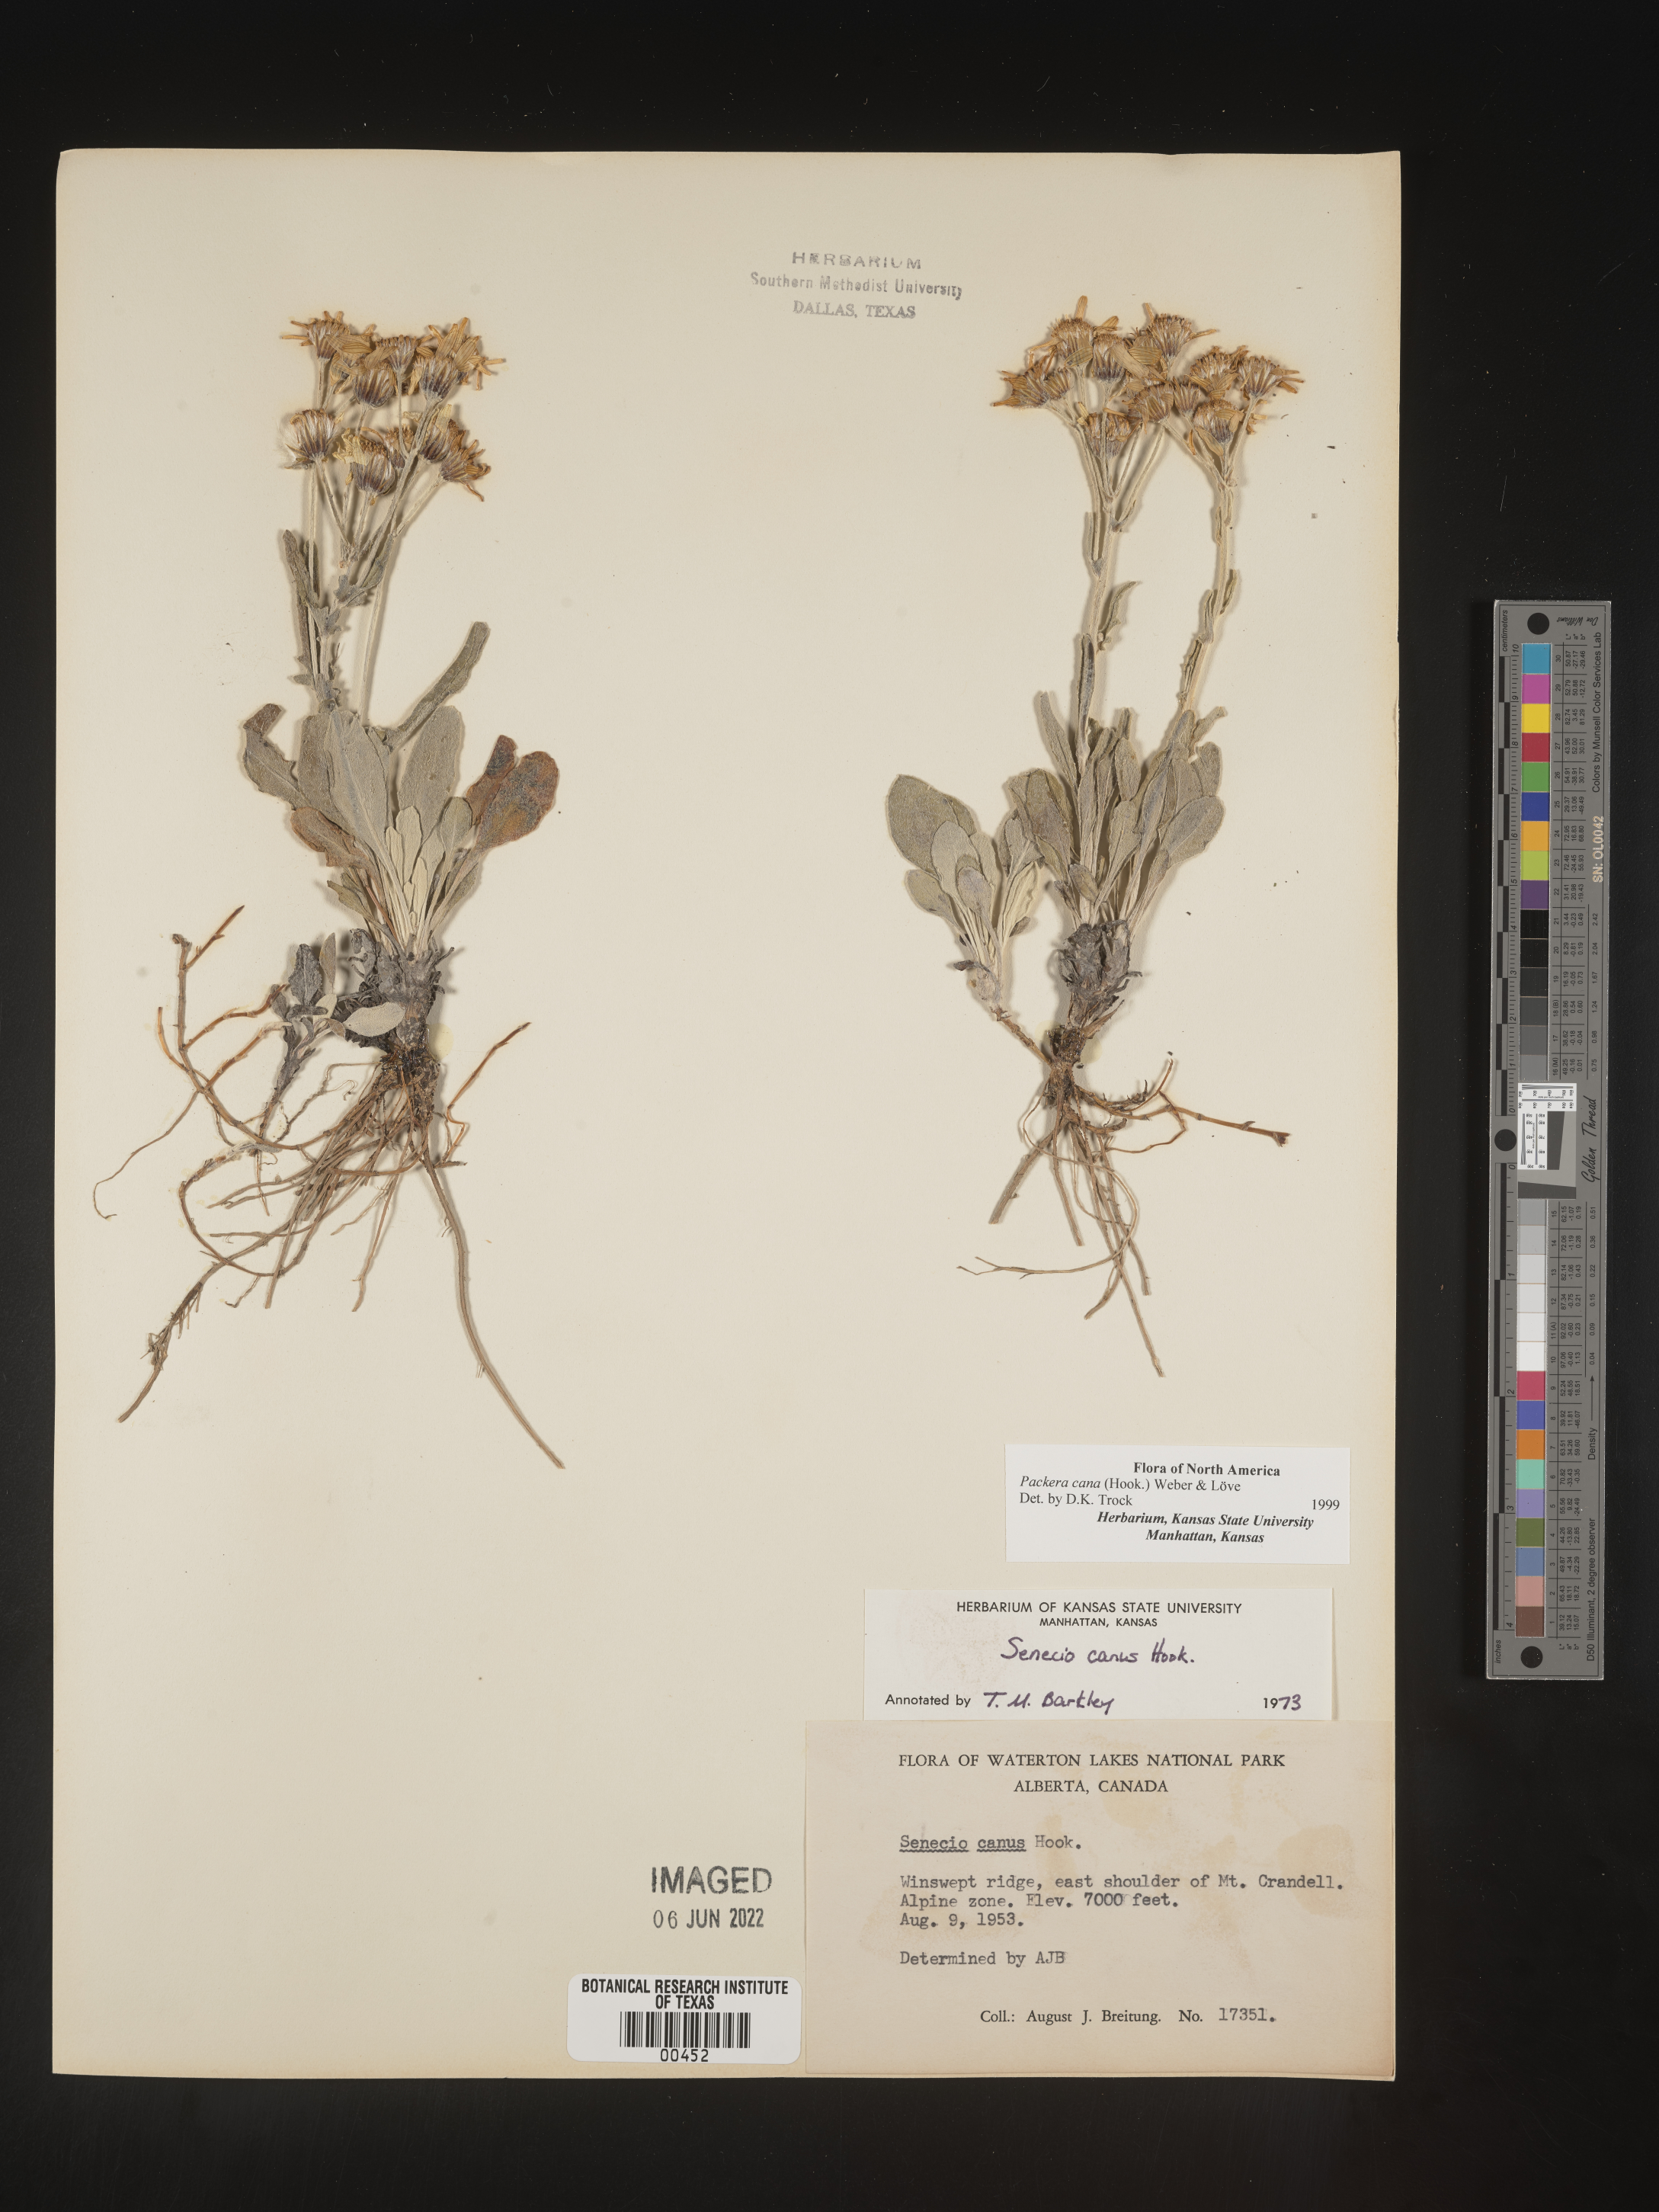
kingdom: Plantae
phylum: Tracheophyta
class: Magnoliopsida
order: Asterales
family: Asteraceae
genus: Packera
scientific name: Packera cana
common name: Woolly groundsel
